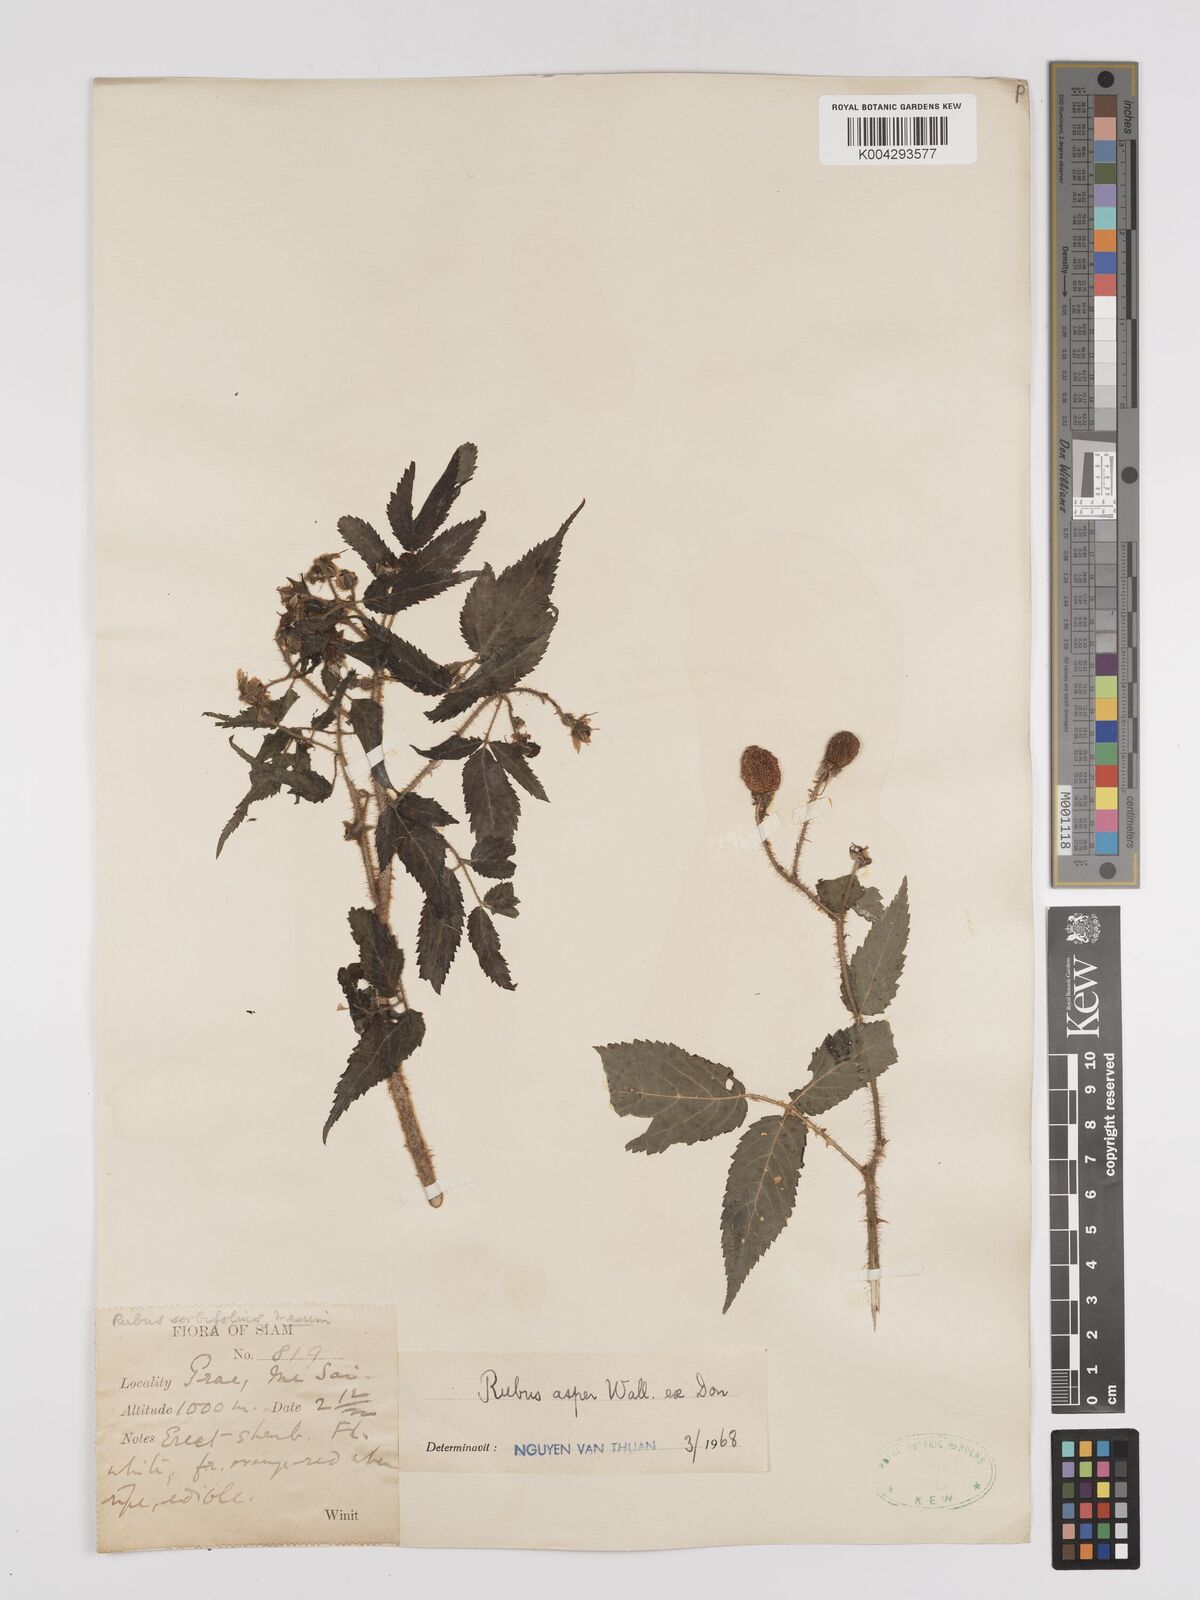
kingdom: Plantae
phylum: Tracheophyta
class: Magnoliopsida
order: Rosales
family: Rosaceae
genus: Rubus
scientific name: Rubus sumatranus
